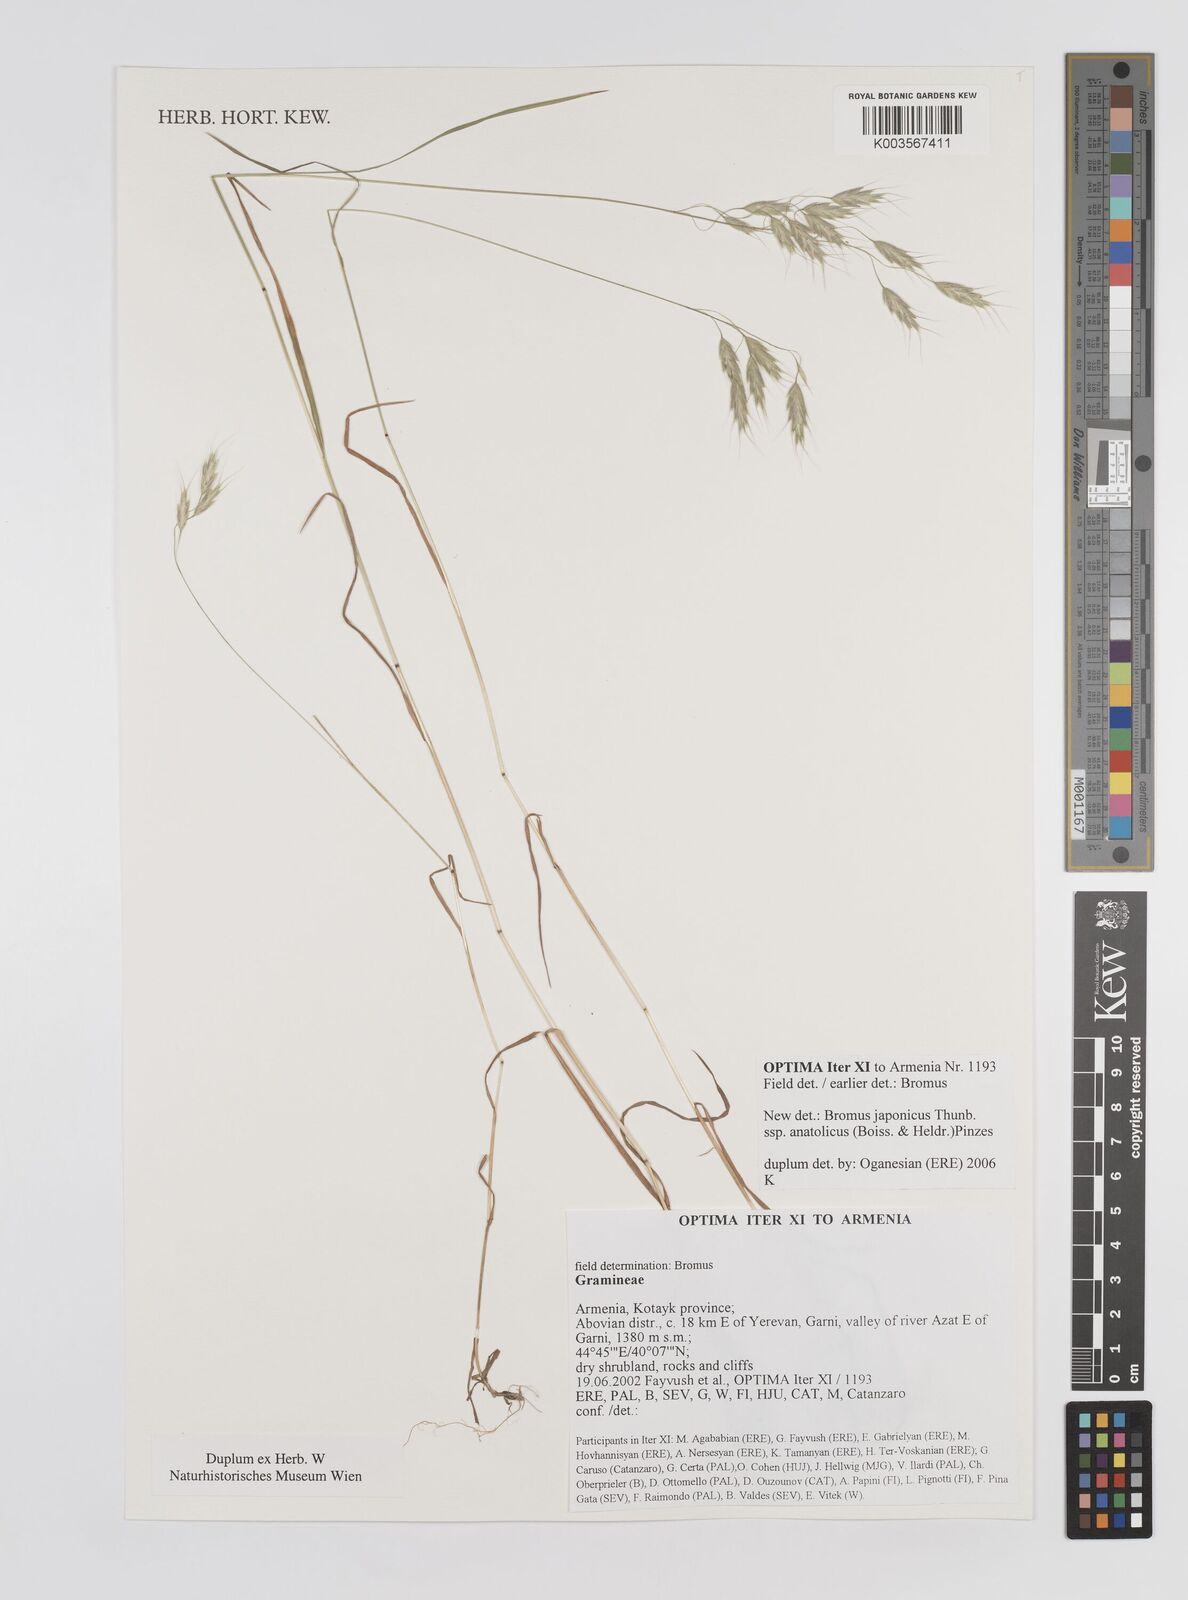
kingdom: Plantae
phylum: Tracheophyta
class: Liliopsida
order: Poales
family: Poaceae
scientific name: Poaceae
